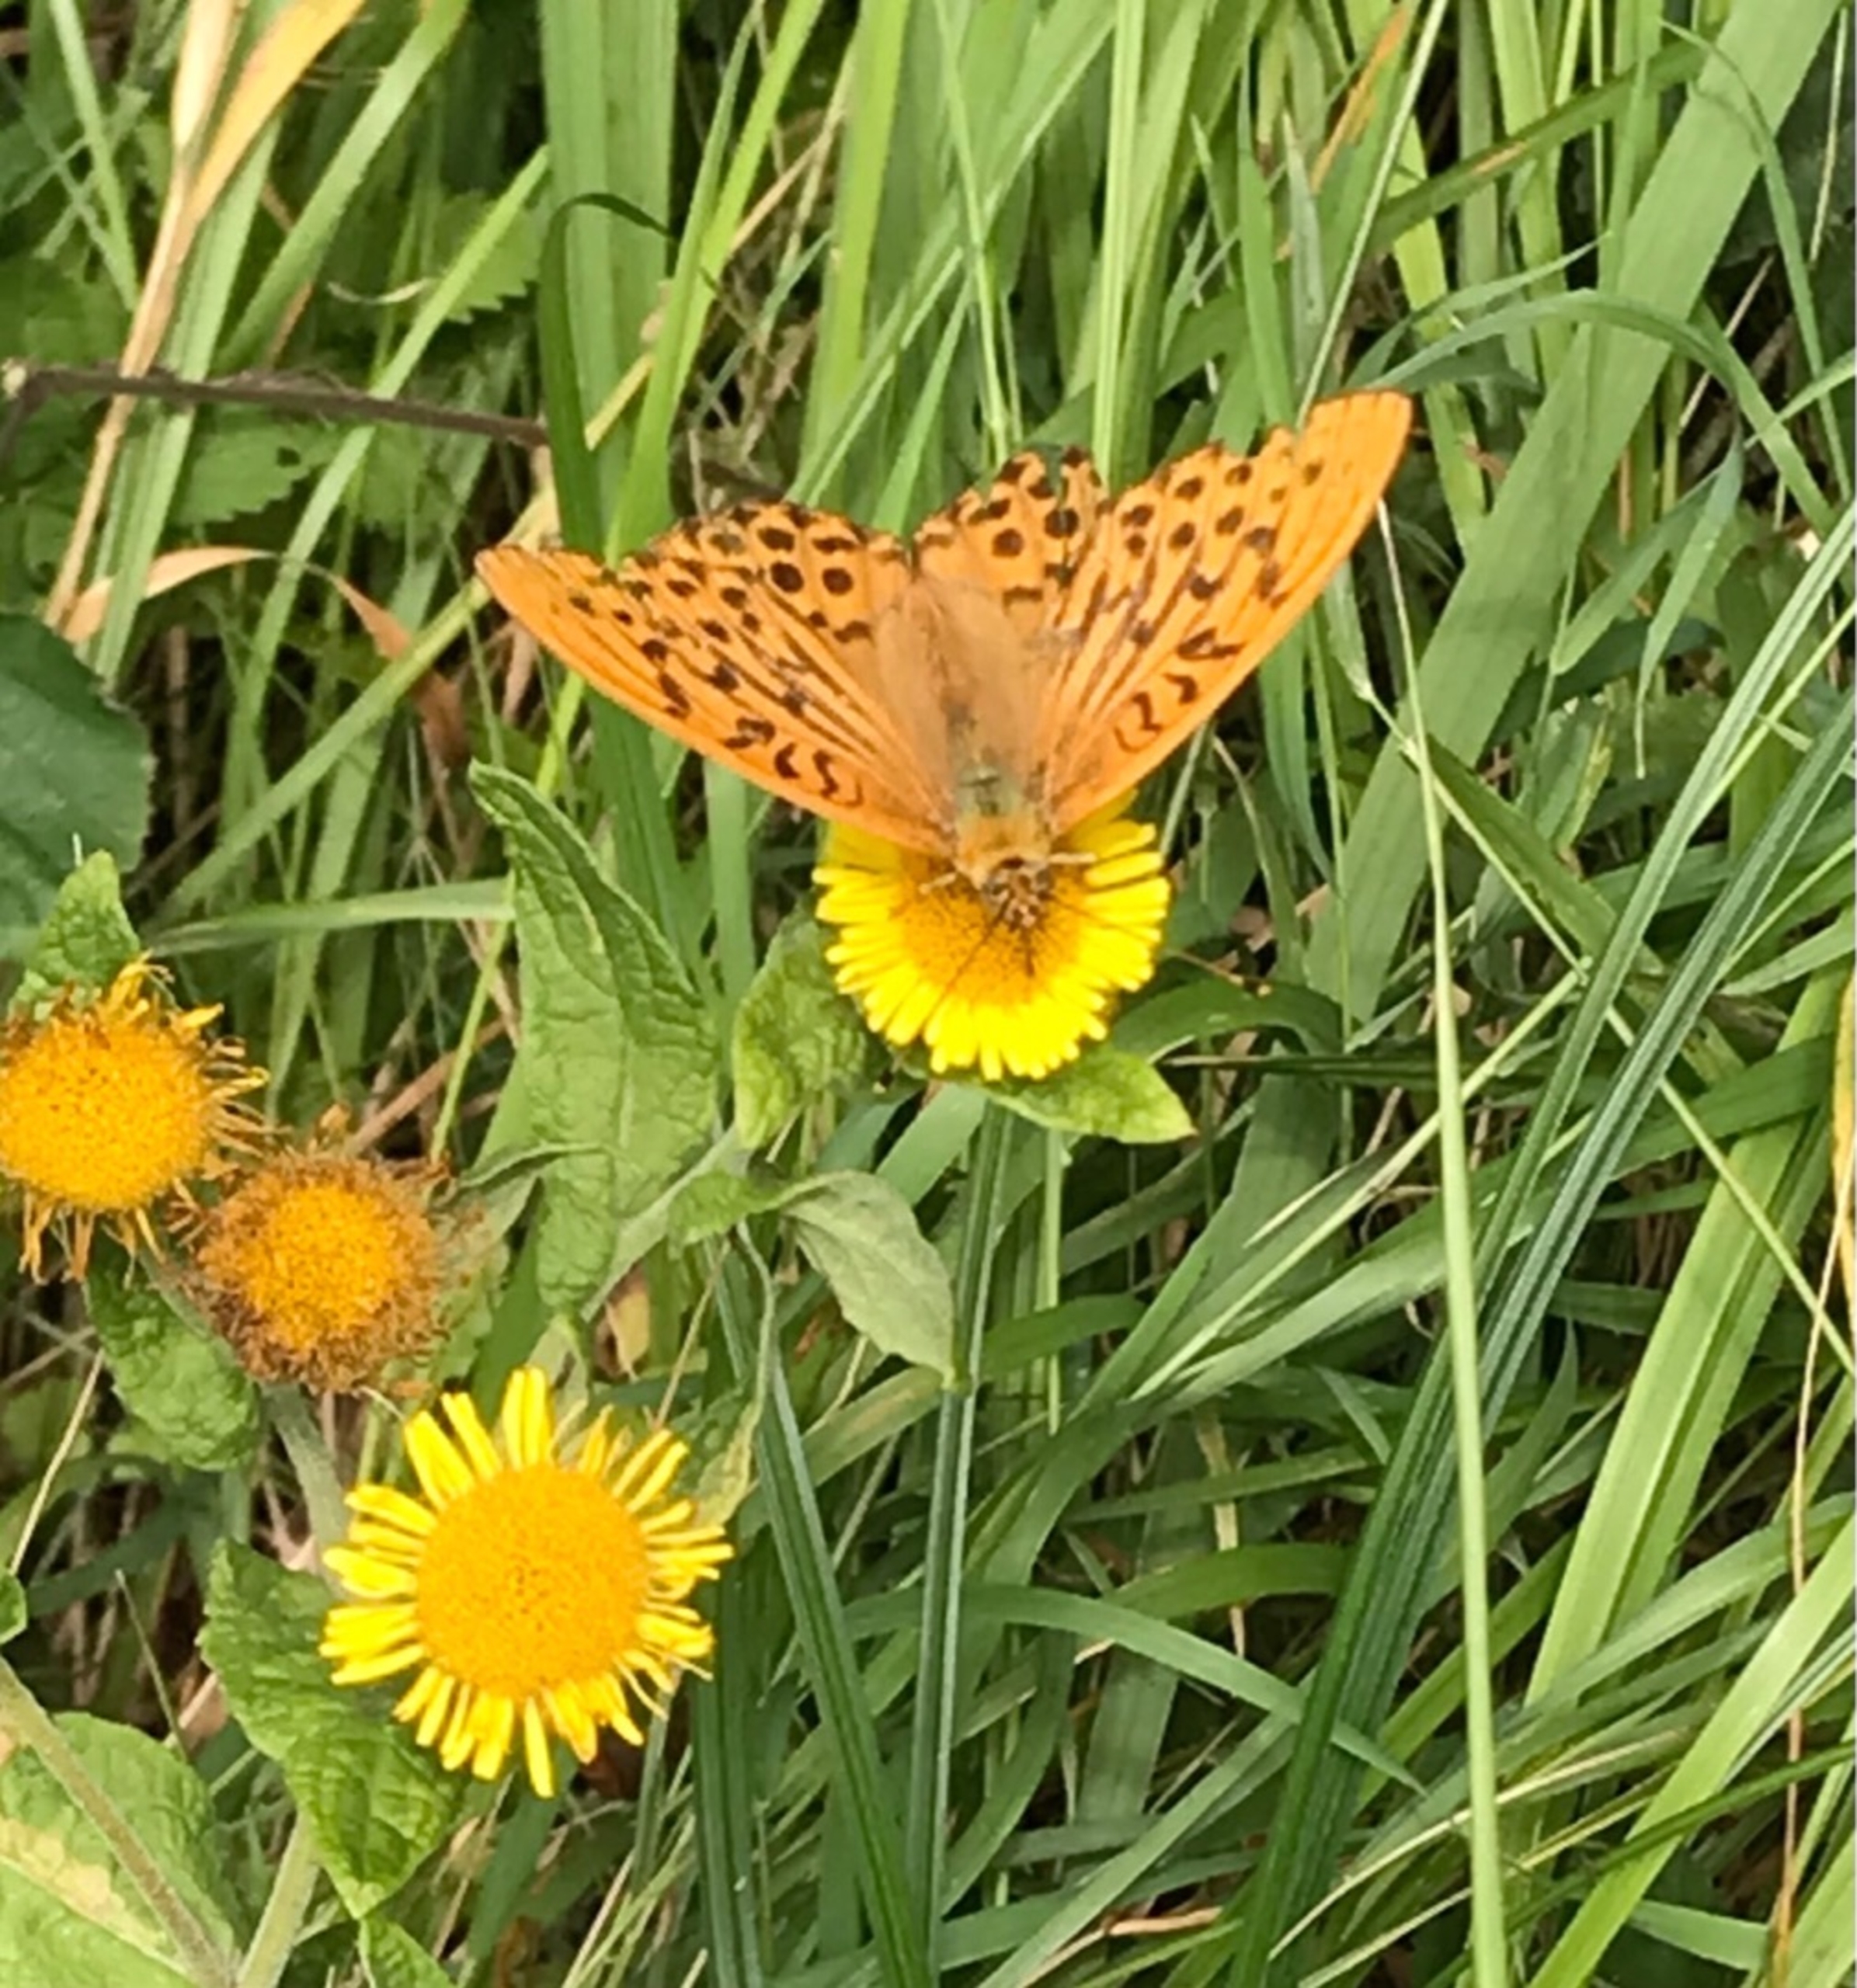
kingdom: Animalia
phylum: Arthropoda
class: Insecta
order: Lepidoptera
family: Nymphalidae
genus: Argynnis
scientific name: Argynnis paphia
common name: Kejserkåbe
